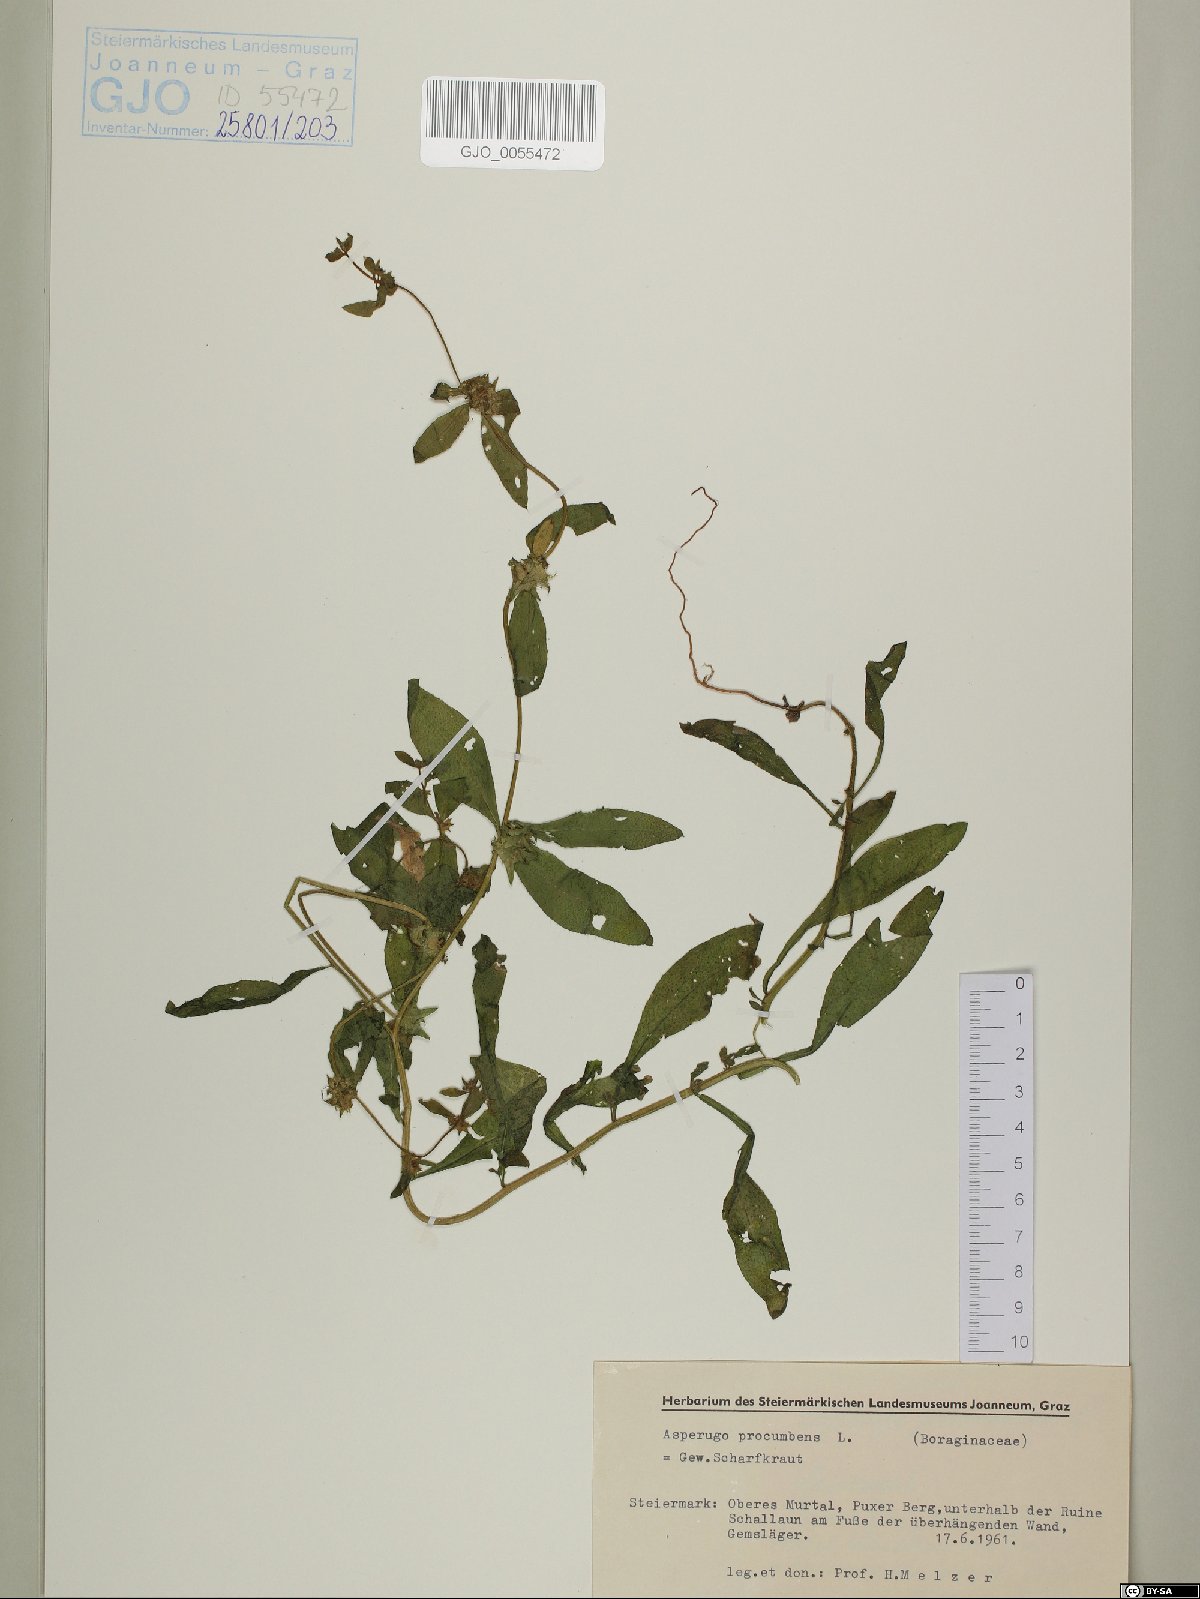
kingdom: Plantae
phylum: Tracheophyta
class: Magnoliopsida
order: Boraginales
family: Boraginaceae
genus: Asperugo
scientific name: Asperugo procumbens
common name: Madwort
